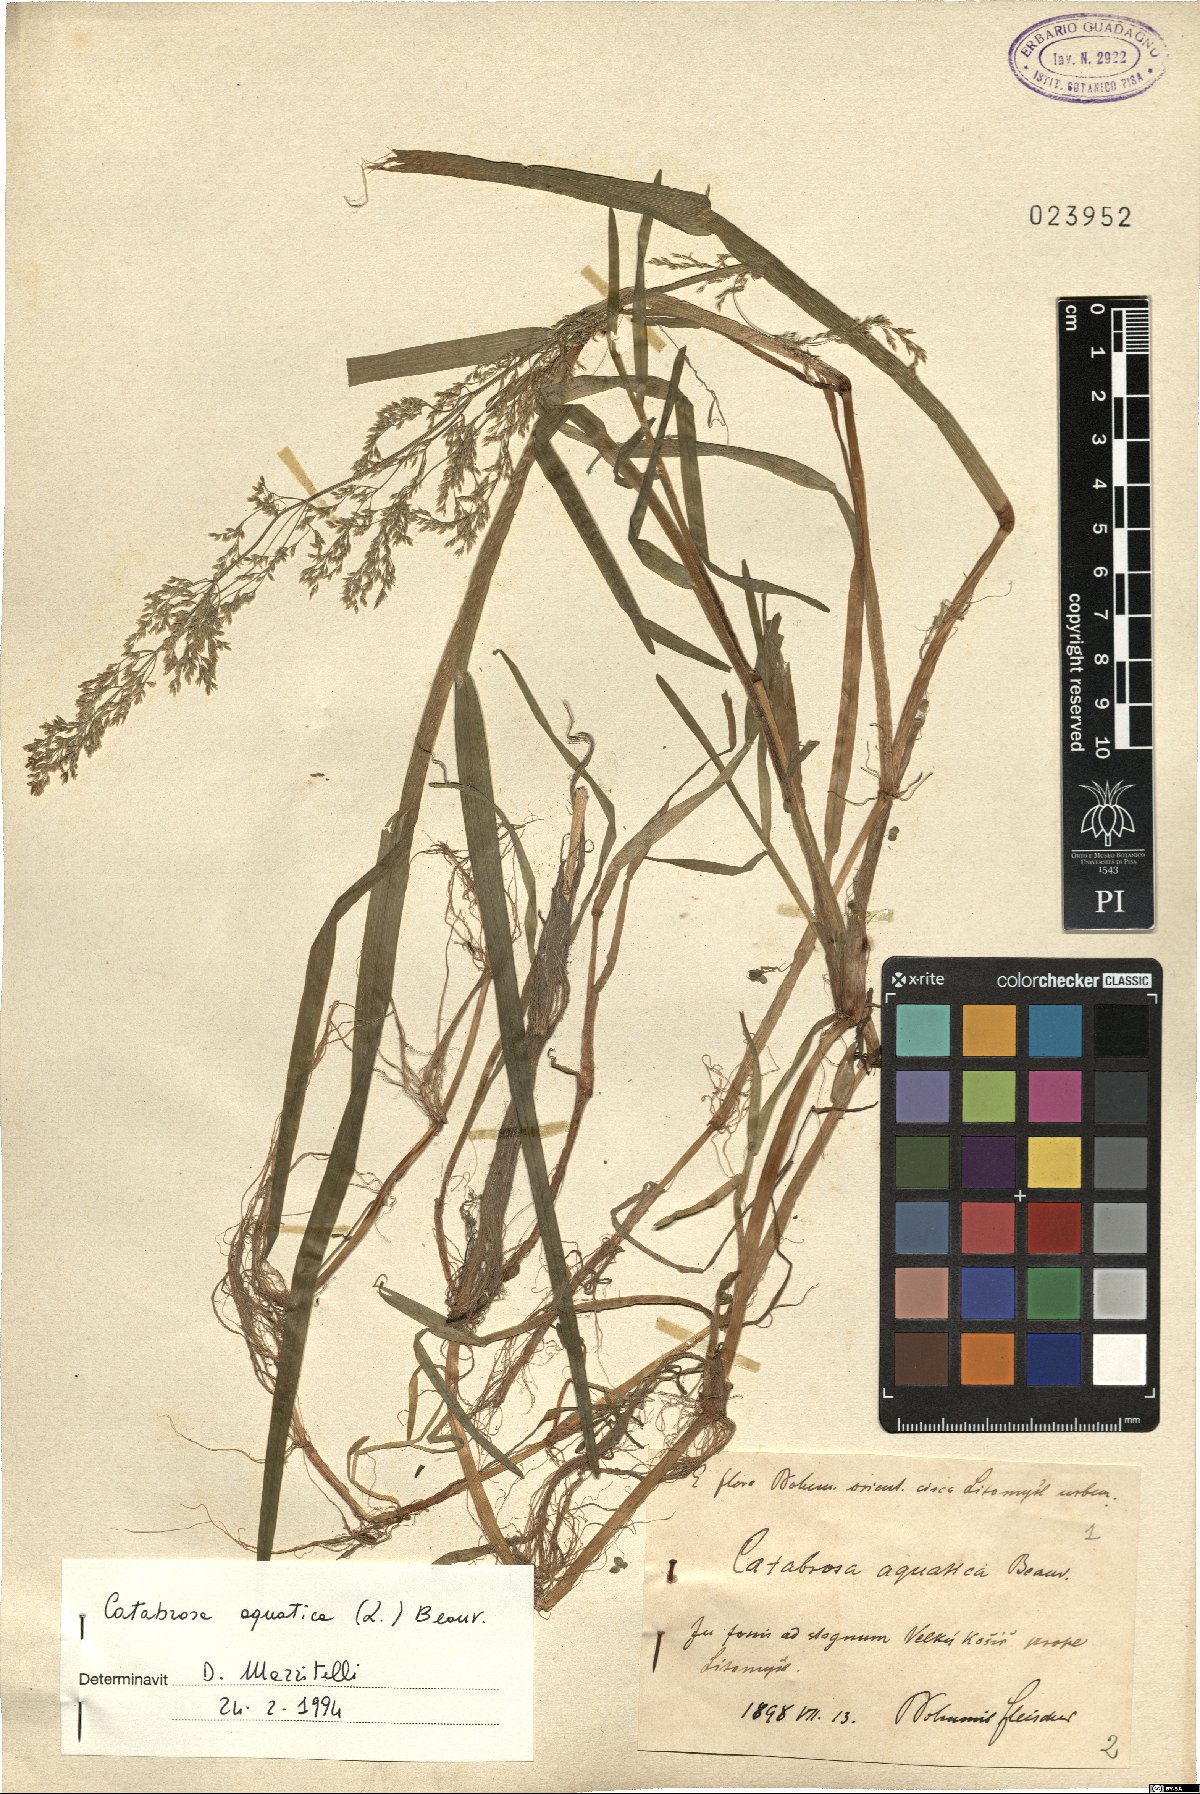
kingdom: Plantae
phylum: Tracheophyta
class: Liliopsida
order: Poales
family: Poaceae
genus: Catabrosa
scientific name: Catabrosa aquatica
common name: Whorl-grass
